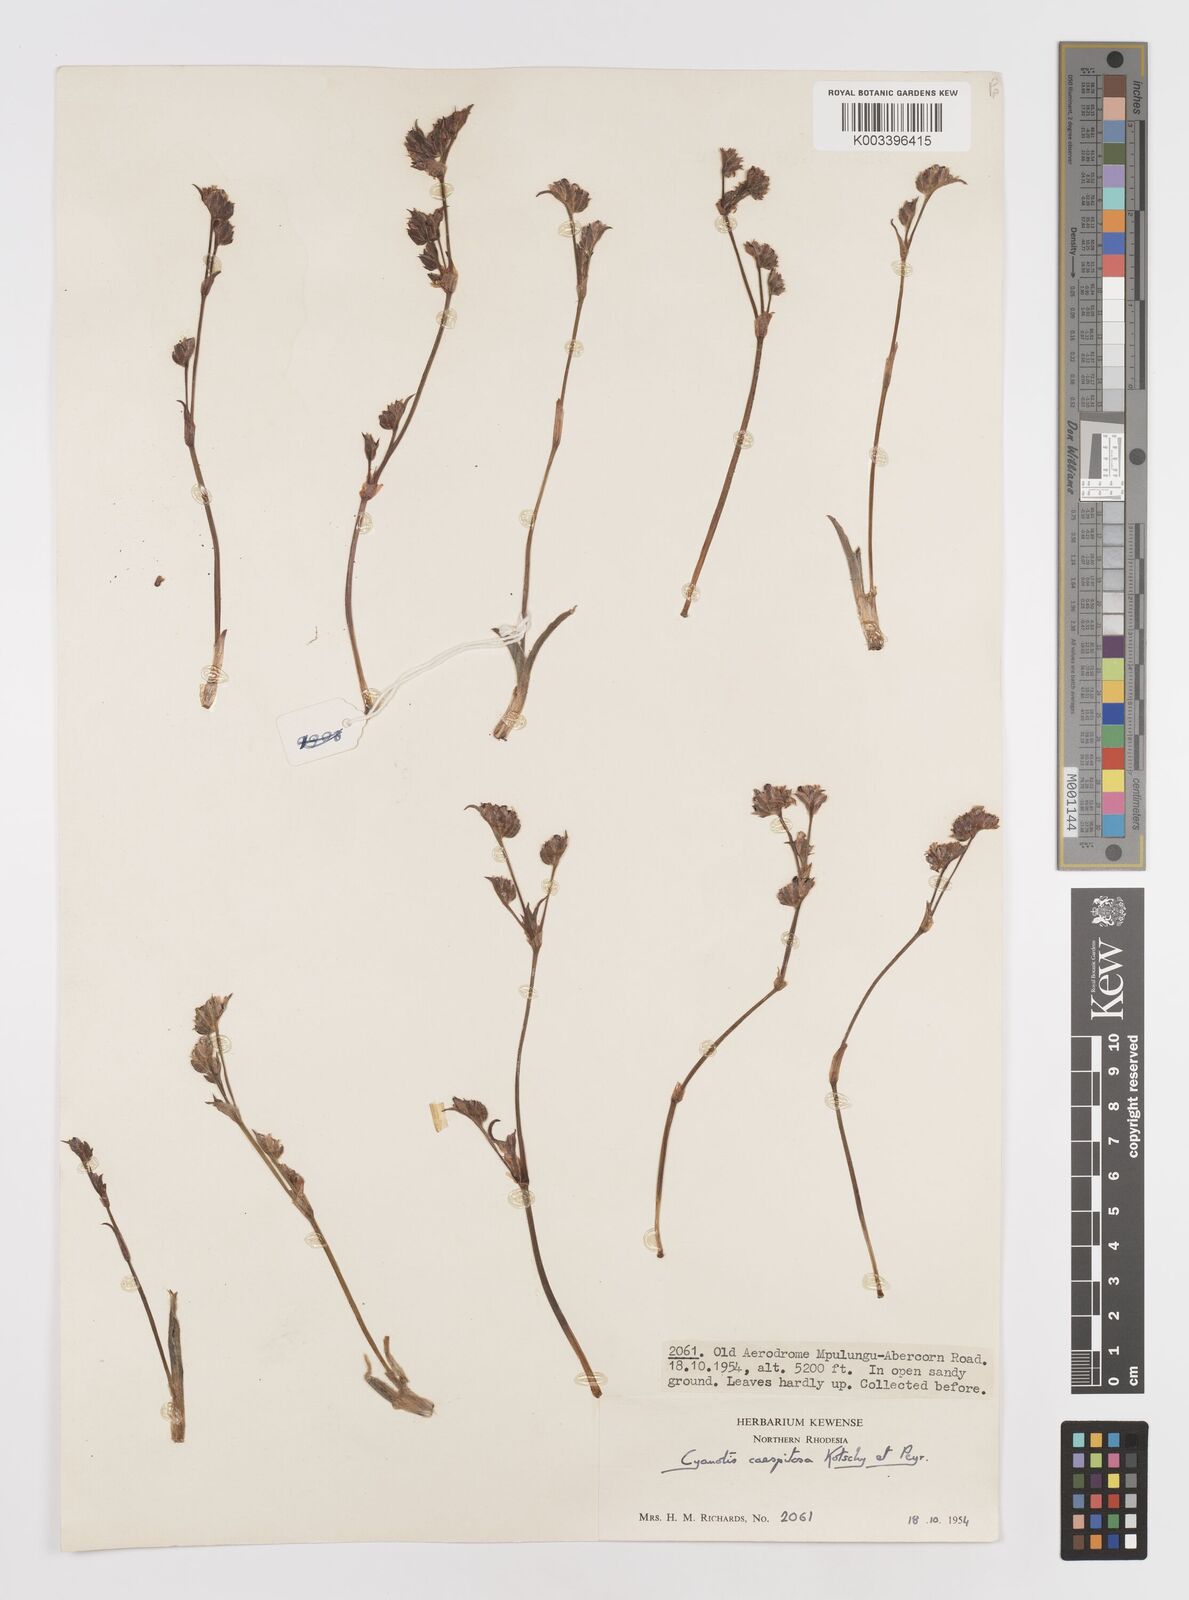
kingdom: Plantae
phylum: Tracheophyta
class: Liliopsida
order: Commelinales
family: Commelinaceae
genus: Cyanotis
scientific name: Cyanotis caespitosa
